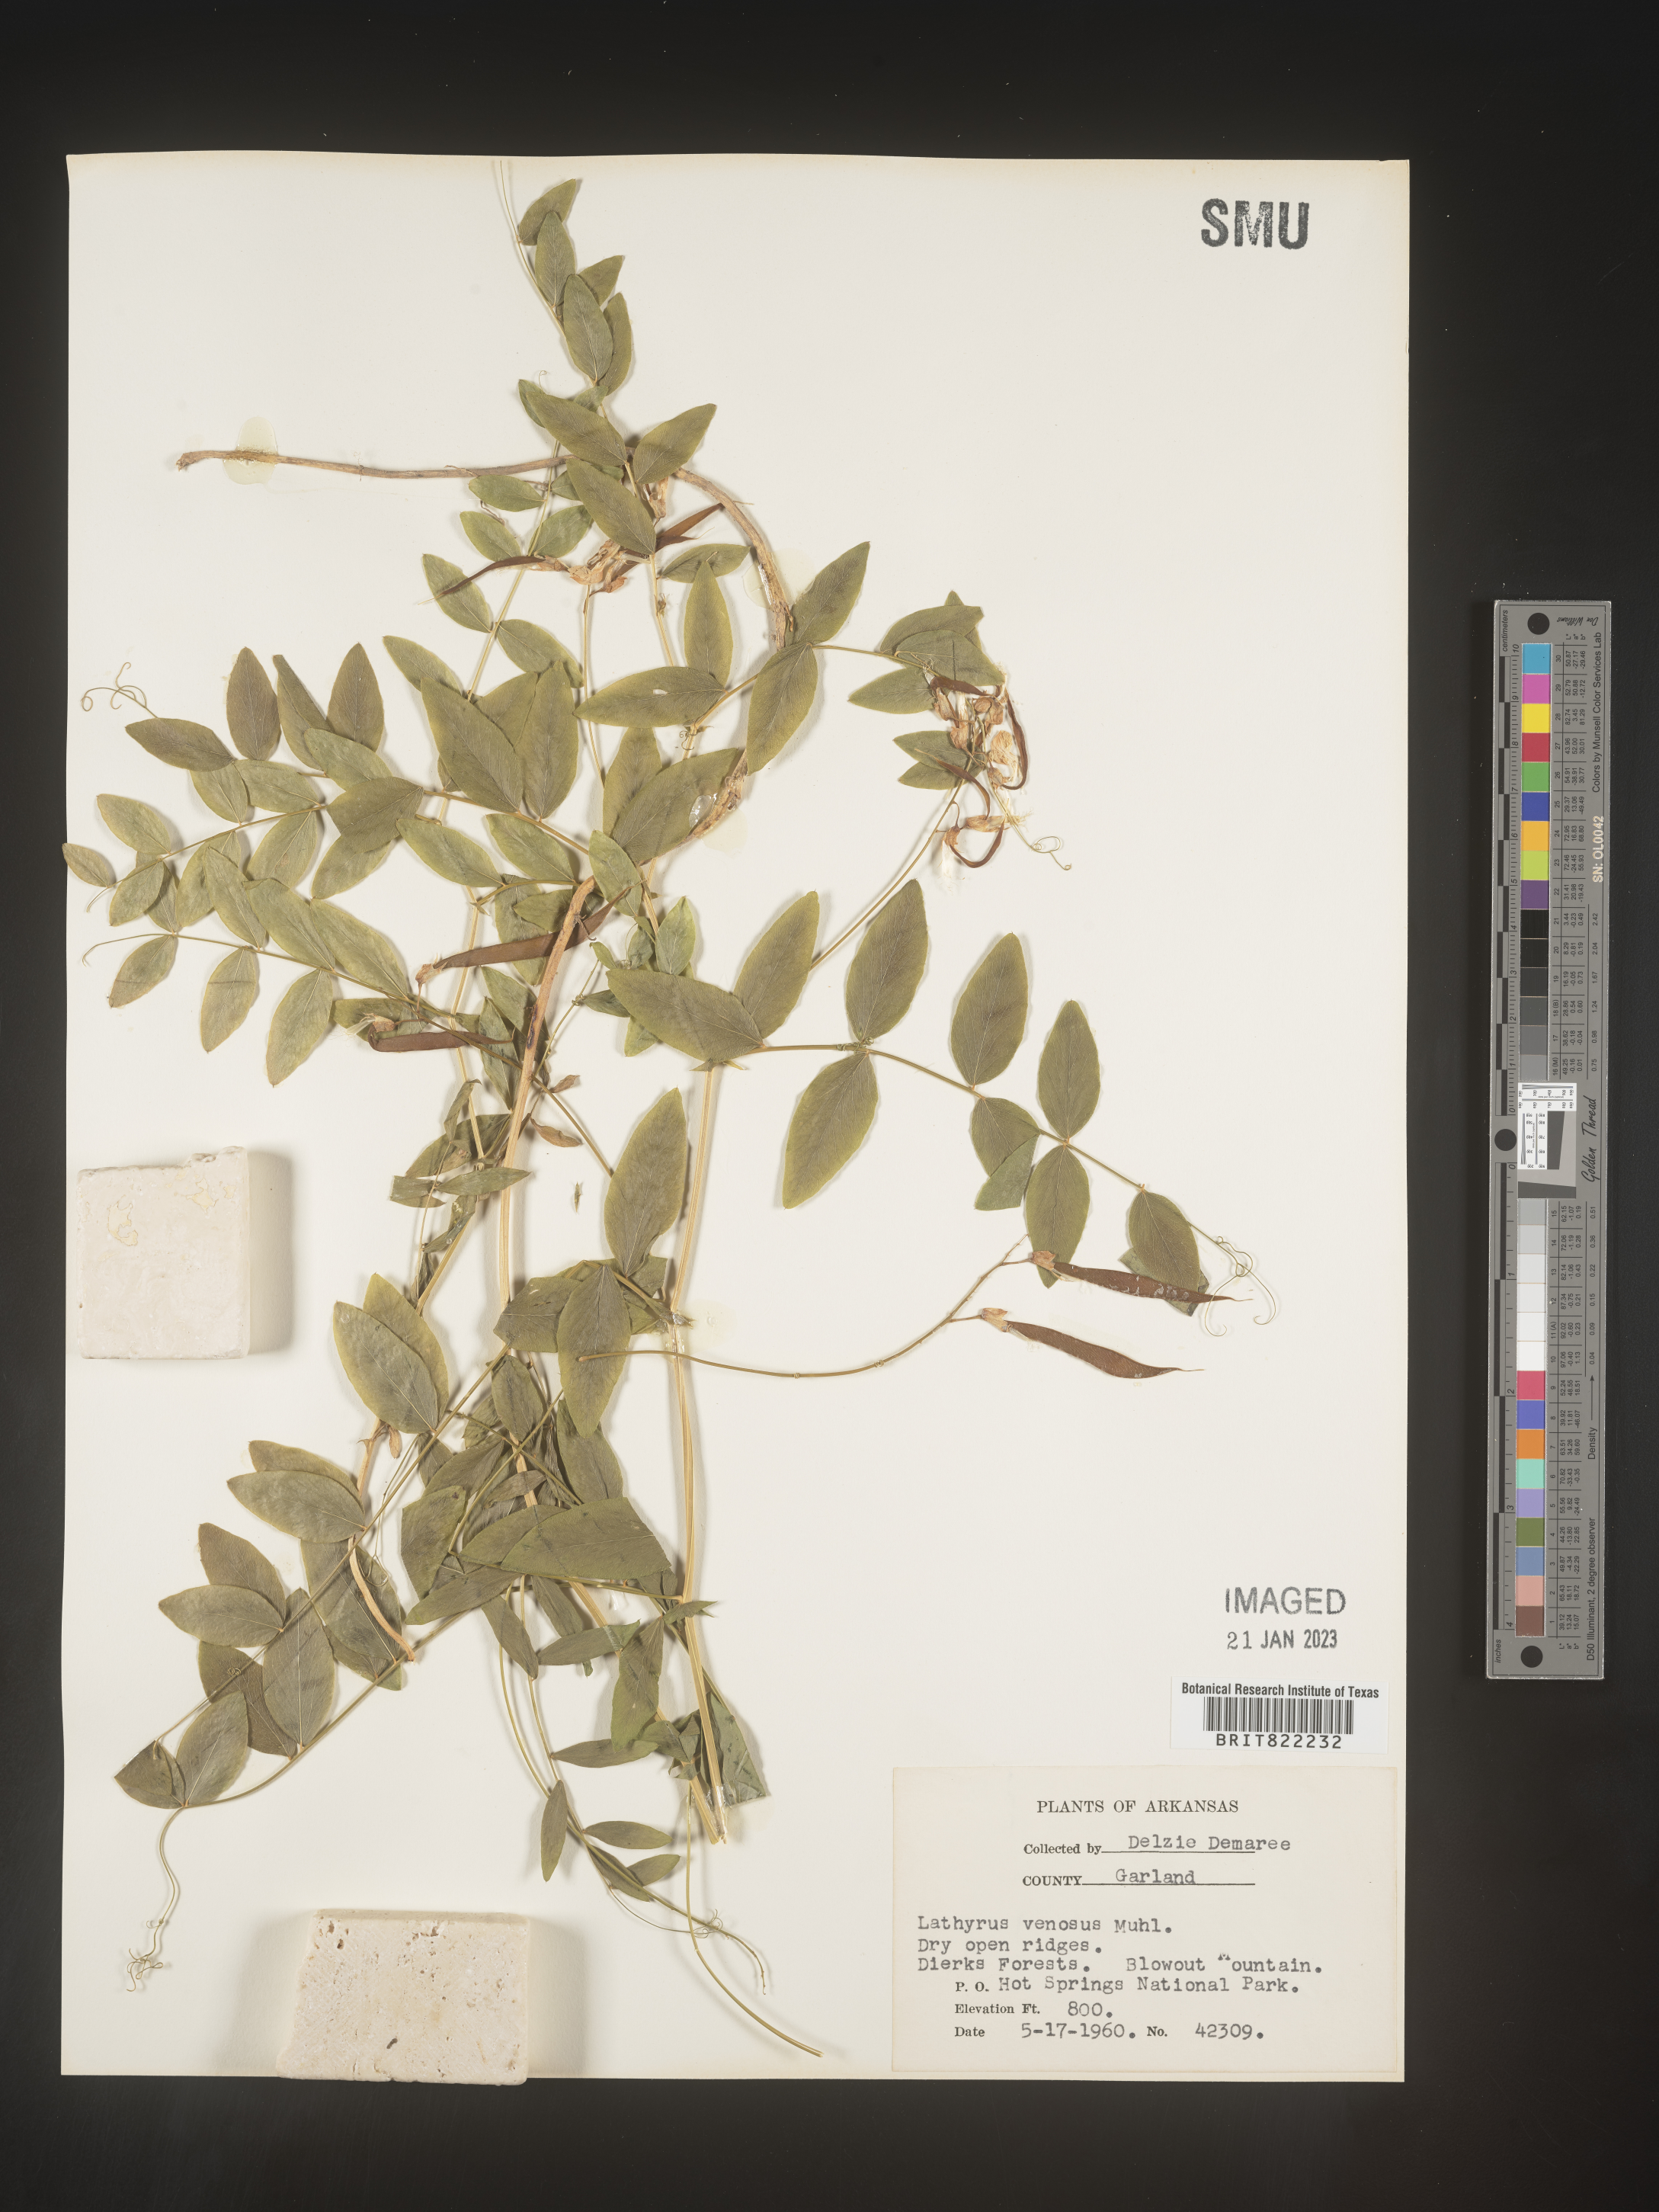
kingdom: Plantae
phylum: Tracheophyta
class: Magnoliopsida
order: Fabales
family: Fabaceae
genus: Lathyrus
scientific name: Lathyrus venosus
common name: Forest-pea
